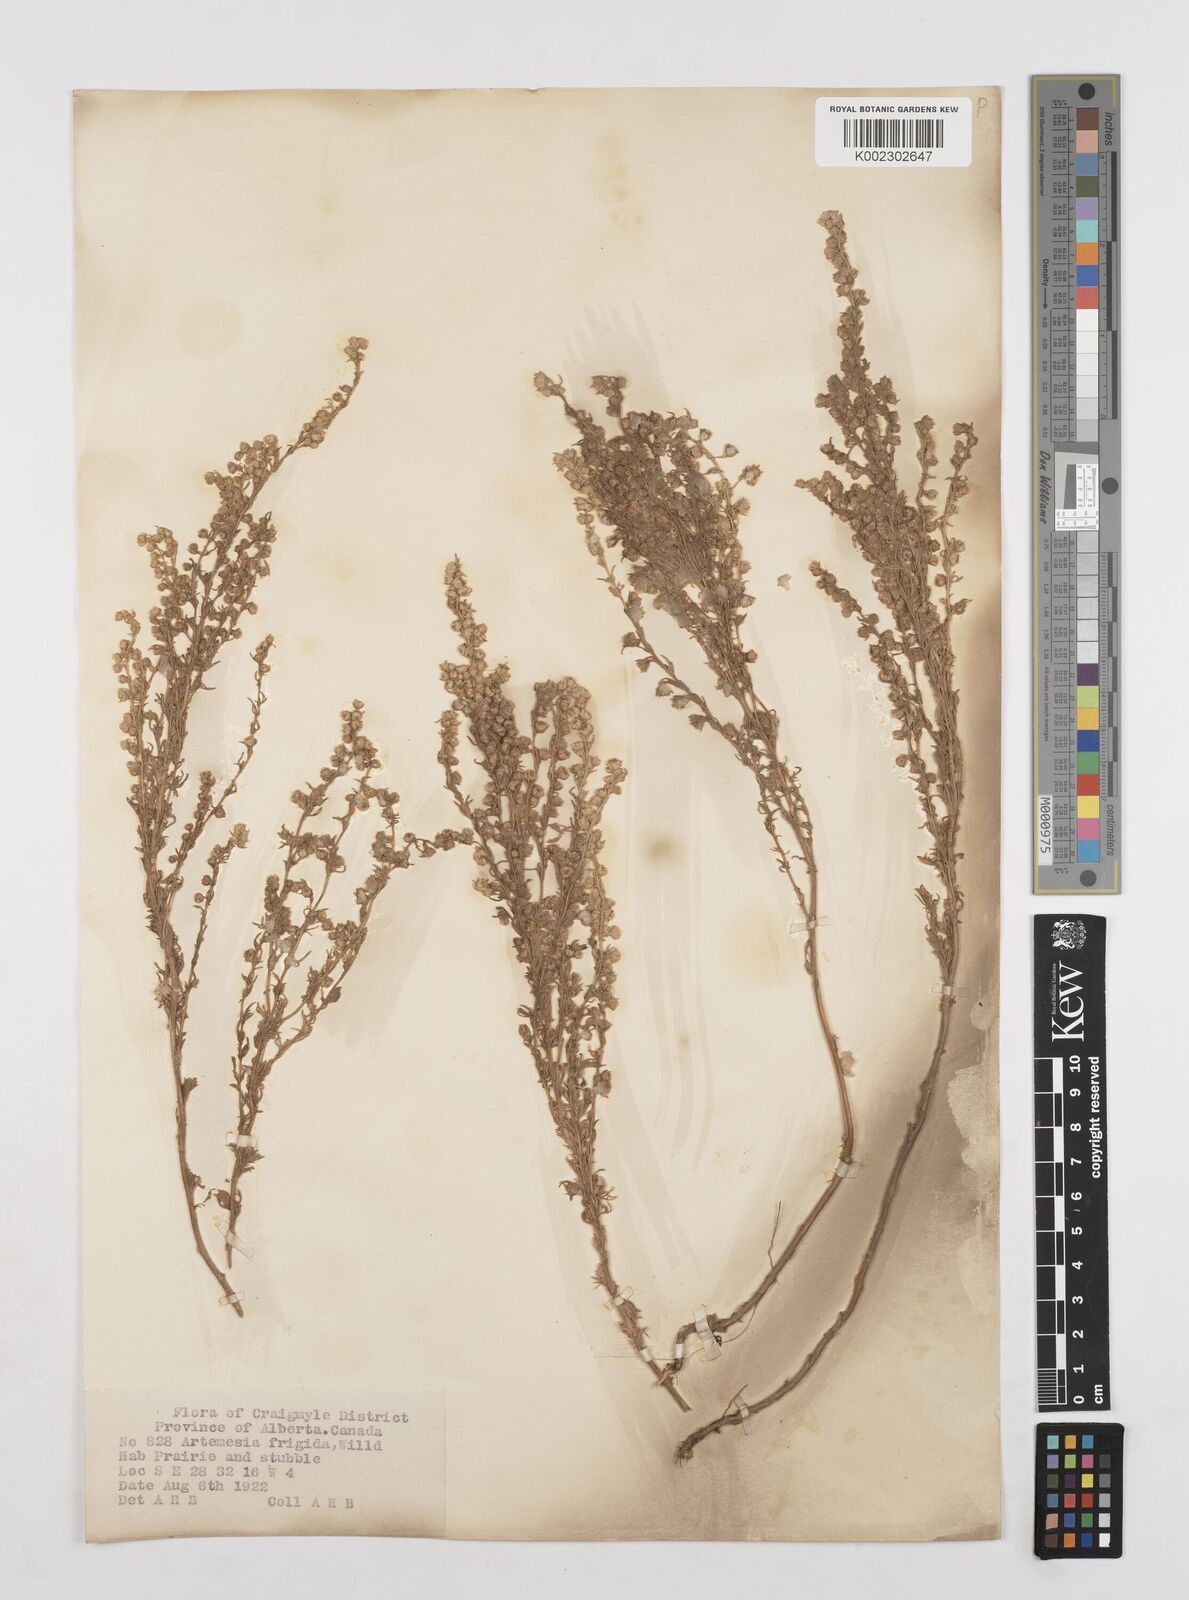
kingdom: Plantae
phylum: Tracheophyta
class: Magnoliopsida
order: Asterales
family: Asteraceae
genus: Artemisia
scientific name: Artemisia frigida
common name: Prairie sagewort
